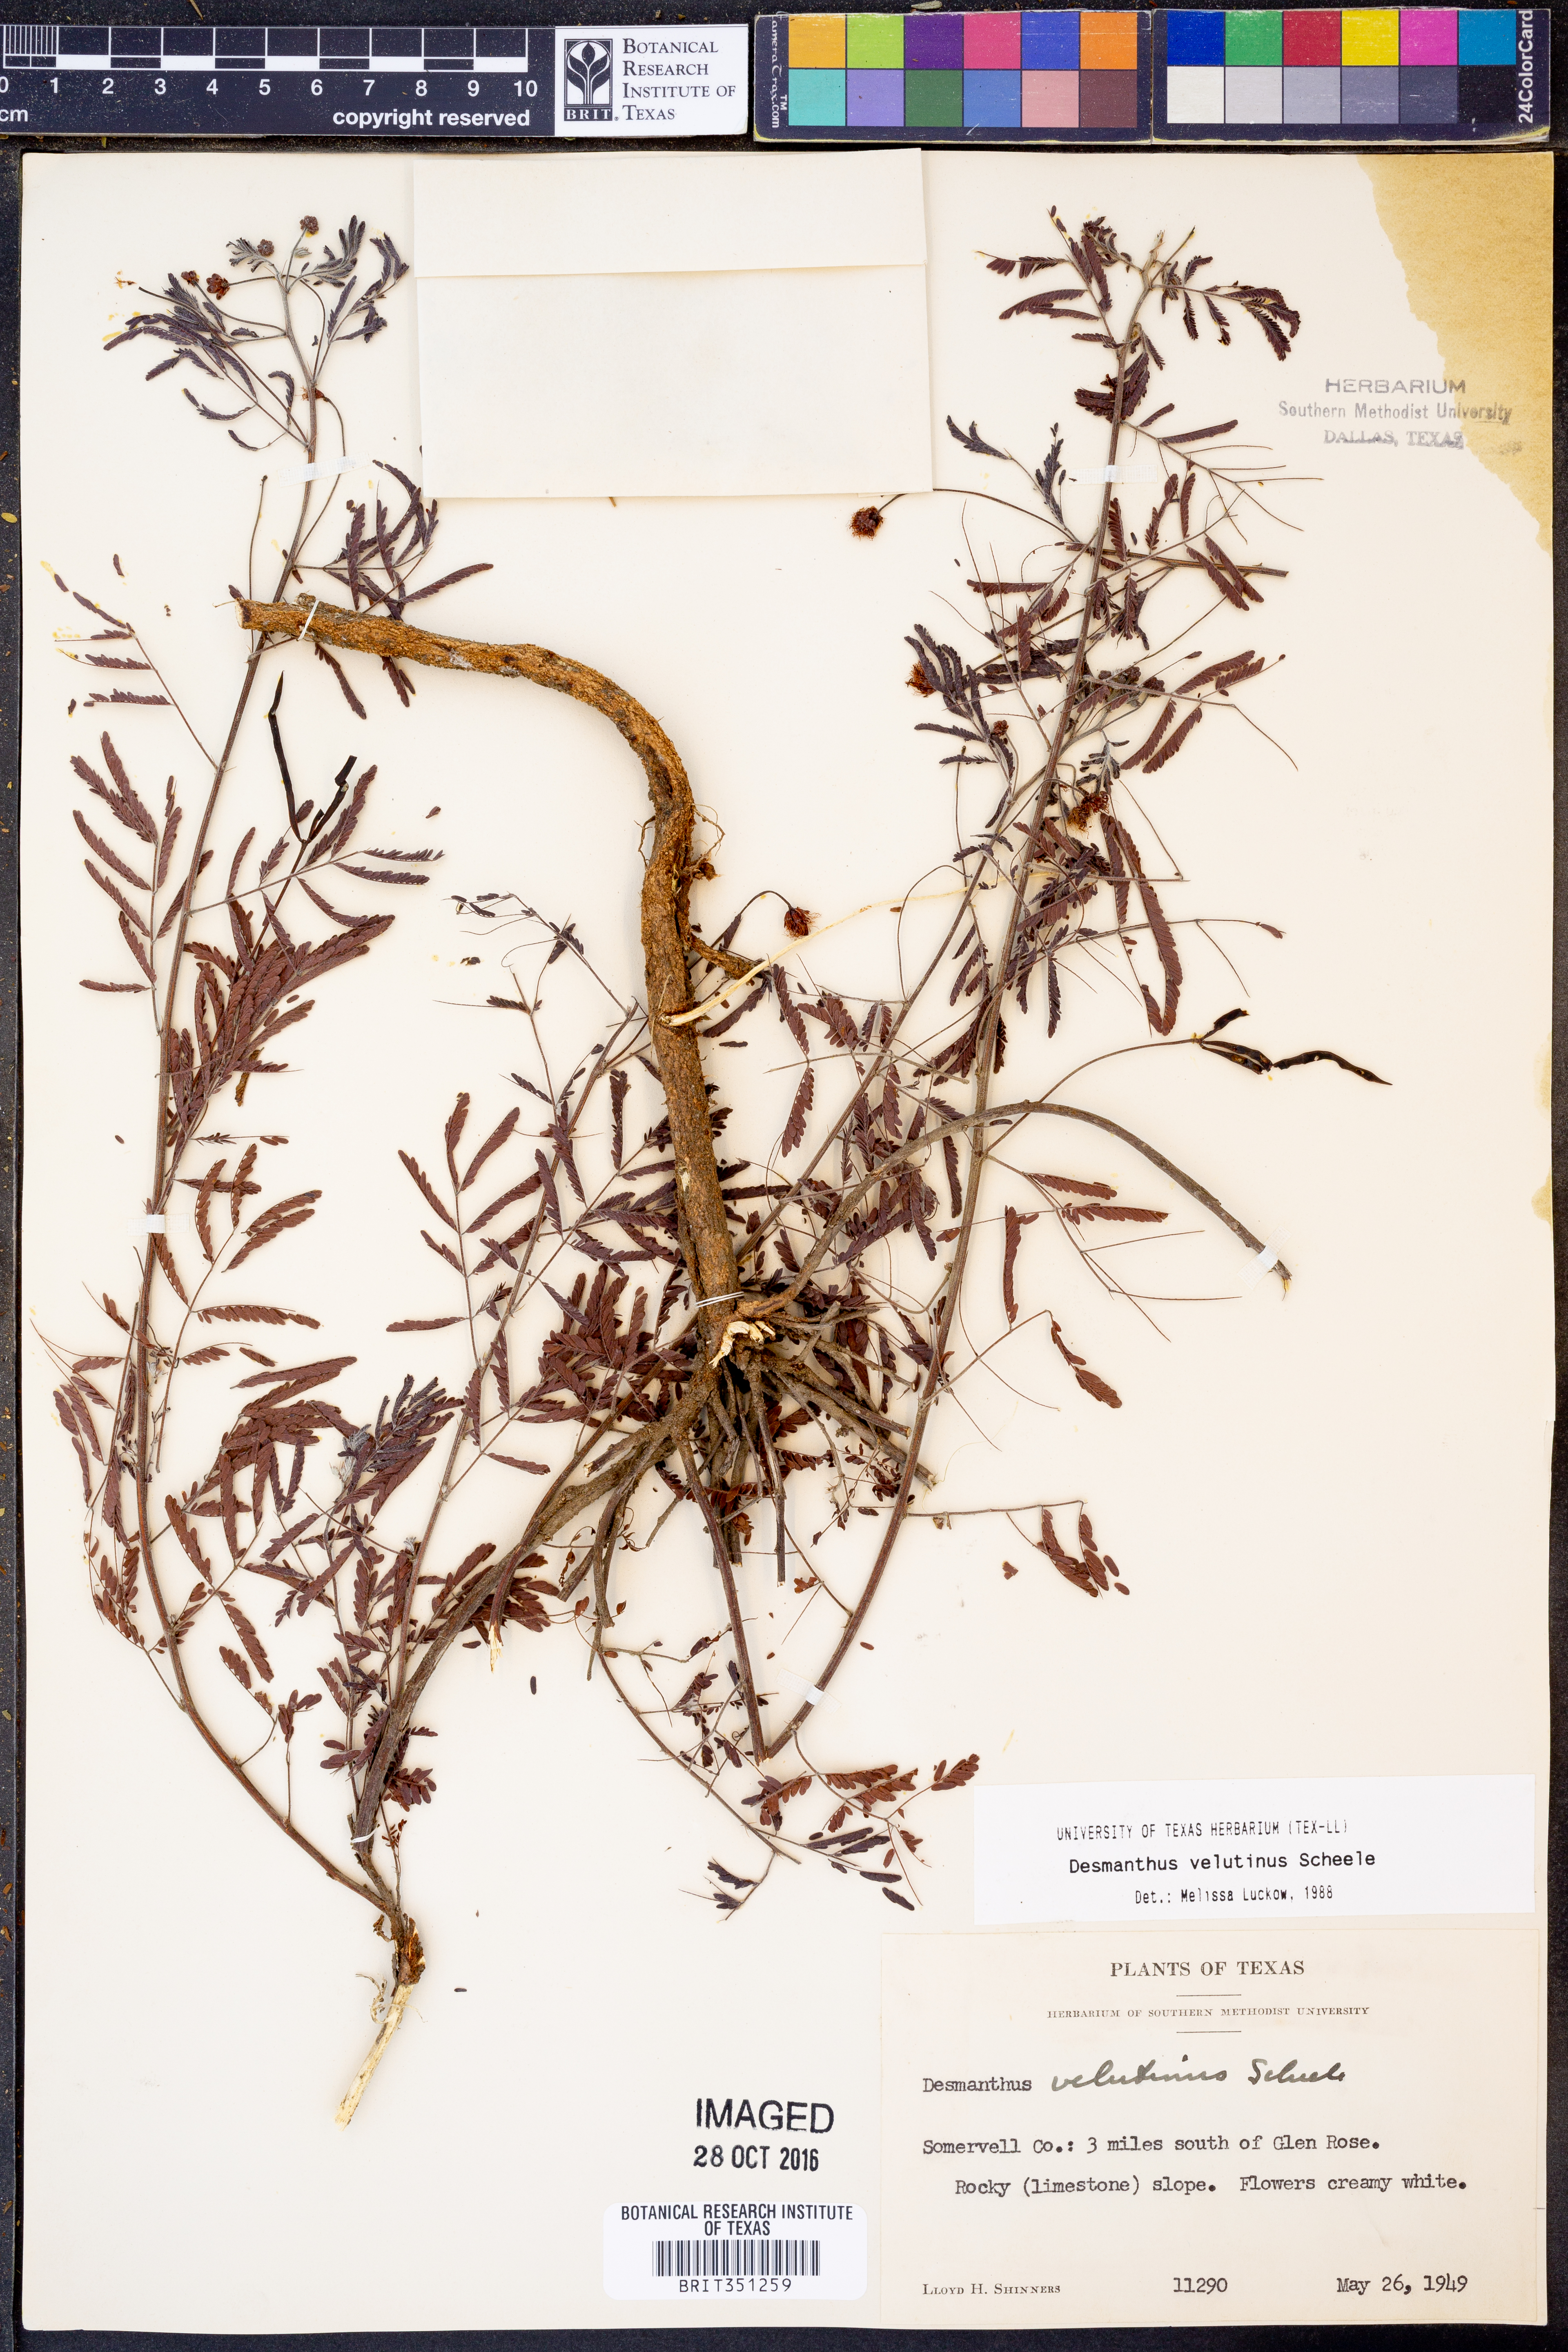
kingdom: Plantae
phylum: Tracheophyta
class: Magnoliopsida
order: Fabales
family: Fabaceae
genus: Desmanthus
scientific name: Desmanthus velutinus
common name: Velvet bundle-flower
